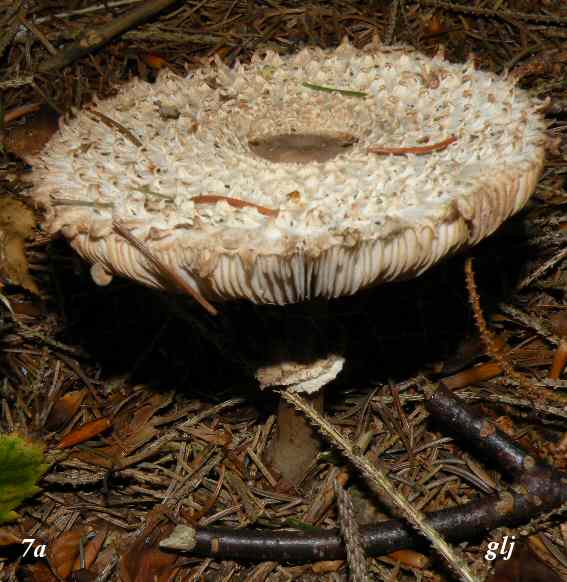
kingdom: Fungi
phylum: Basidiomycota
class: Agaricomycetes
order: Agaricales
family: Agaricaceae
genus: Leucoagaricus
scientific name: Leucoagaricus nympharum
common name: gran-silkehat
